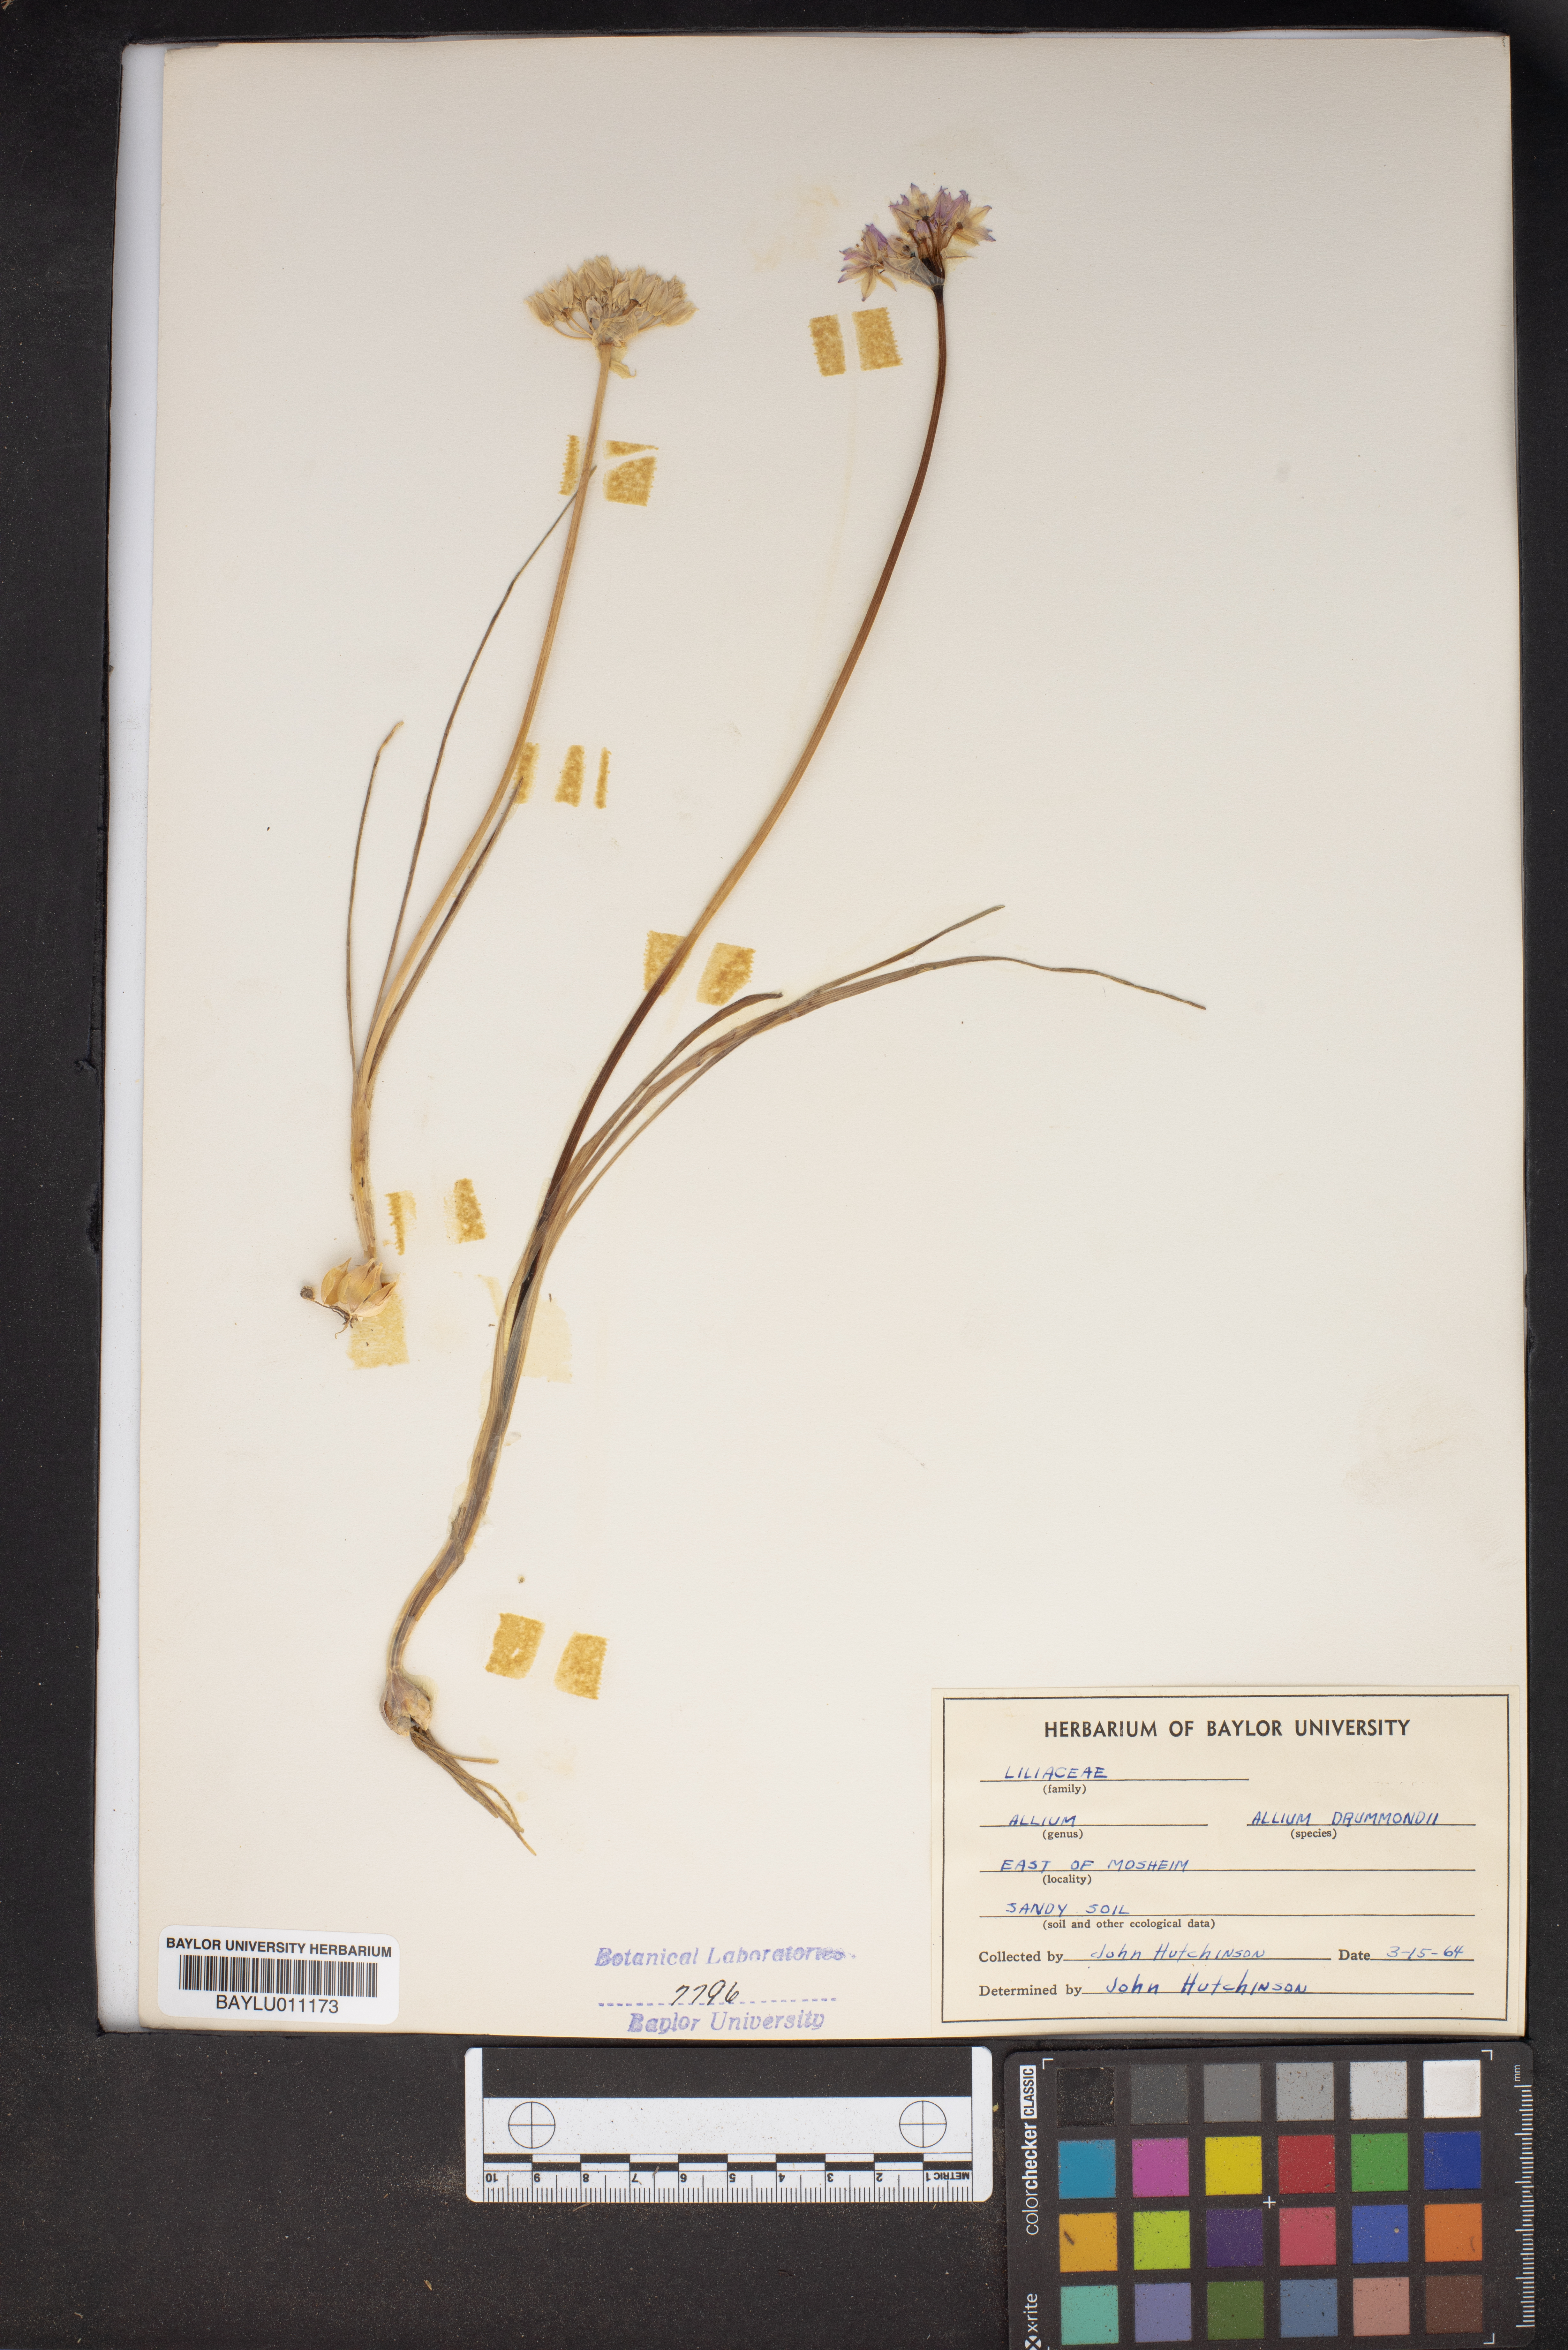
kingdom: Plantae
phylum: Tracheophyta
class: Liliopsida
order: Asparagales
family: Amaryllidaceae
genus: Allium
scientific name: Allium drummondii
